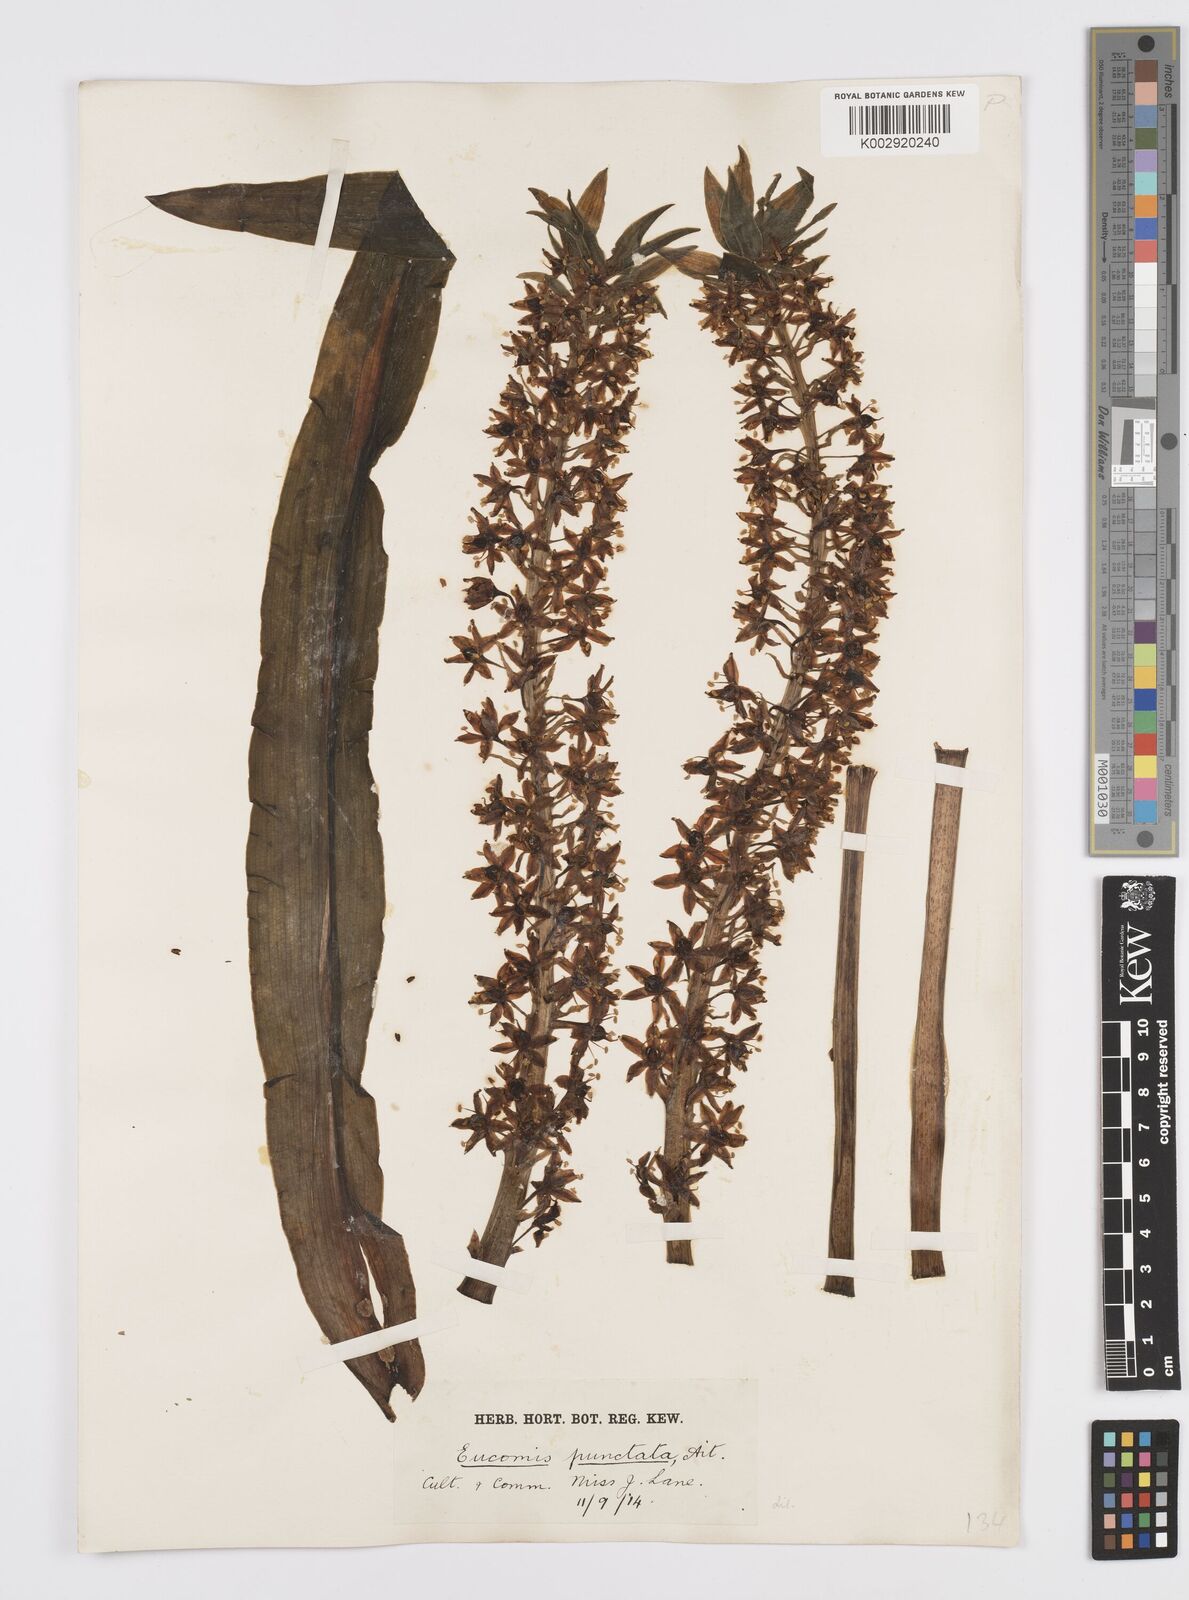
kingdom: Plantae
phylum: Tracheophyta
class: Liliopsida
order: Asparagales
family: Asparagaceae
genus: Eucomis
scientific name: Eucomis comosa
